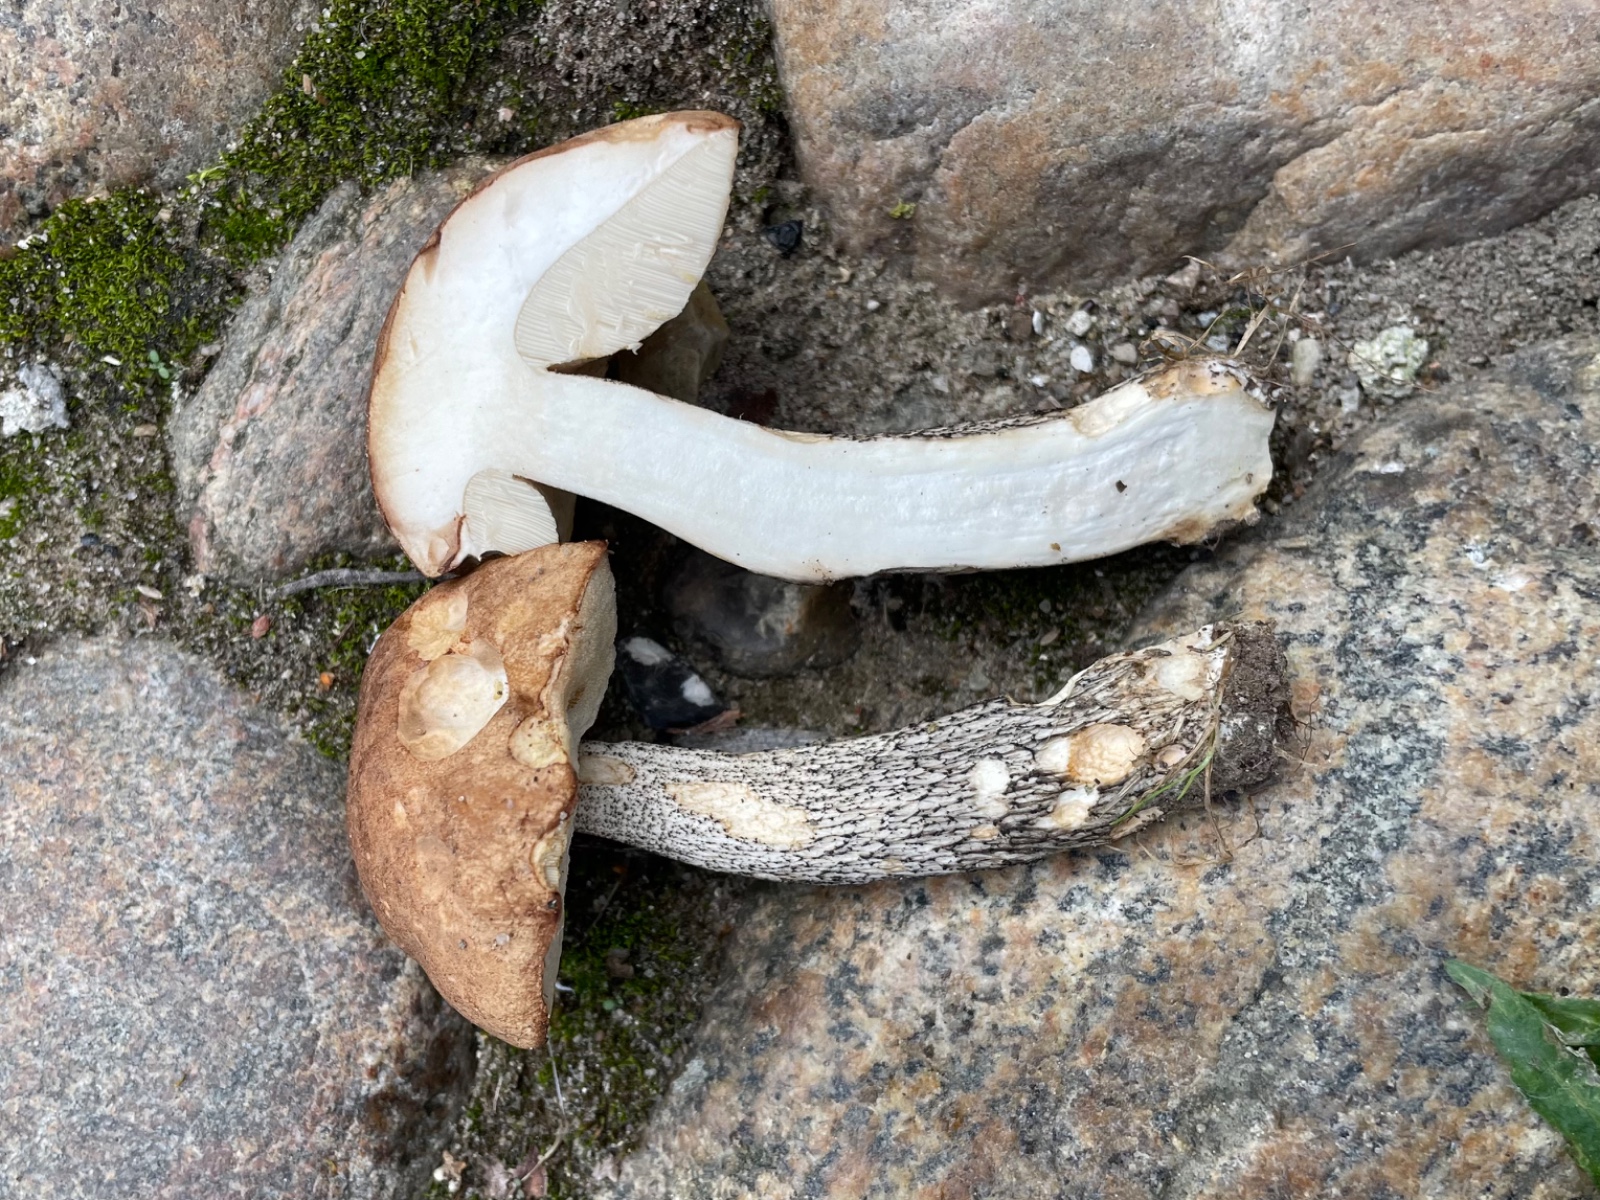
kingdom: Fungi
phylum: Basidiomycota
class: Agaricomycetes
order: Boletales
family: Boletaceae
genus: Leccinum
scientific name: Leccinum scabrum
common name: brun skælrørhat
